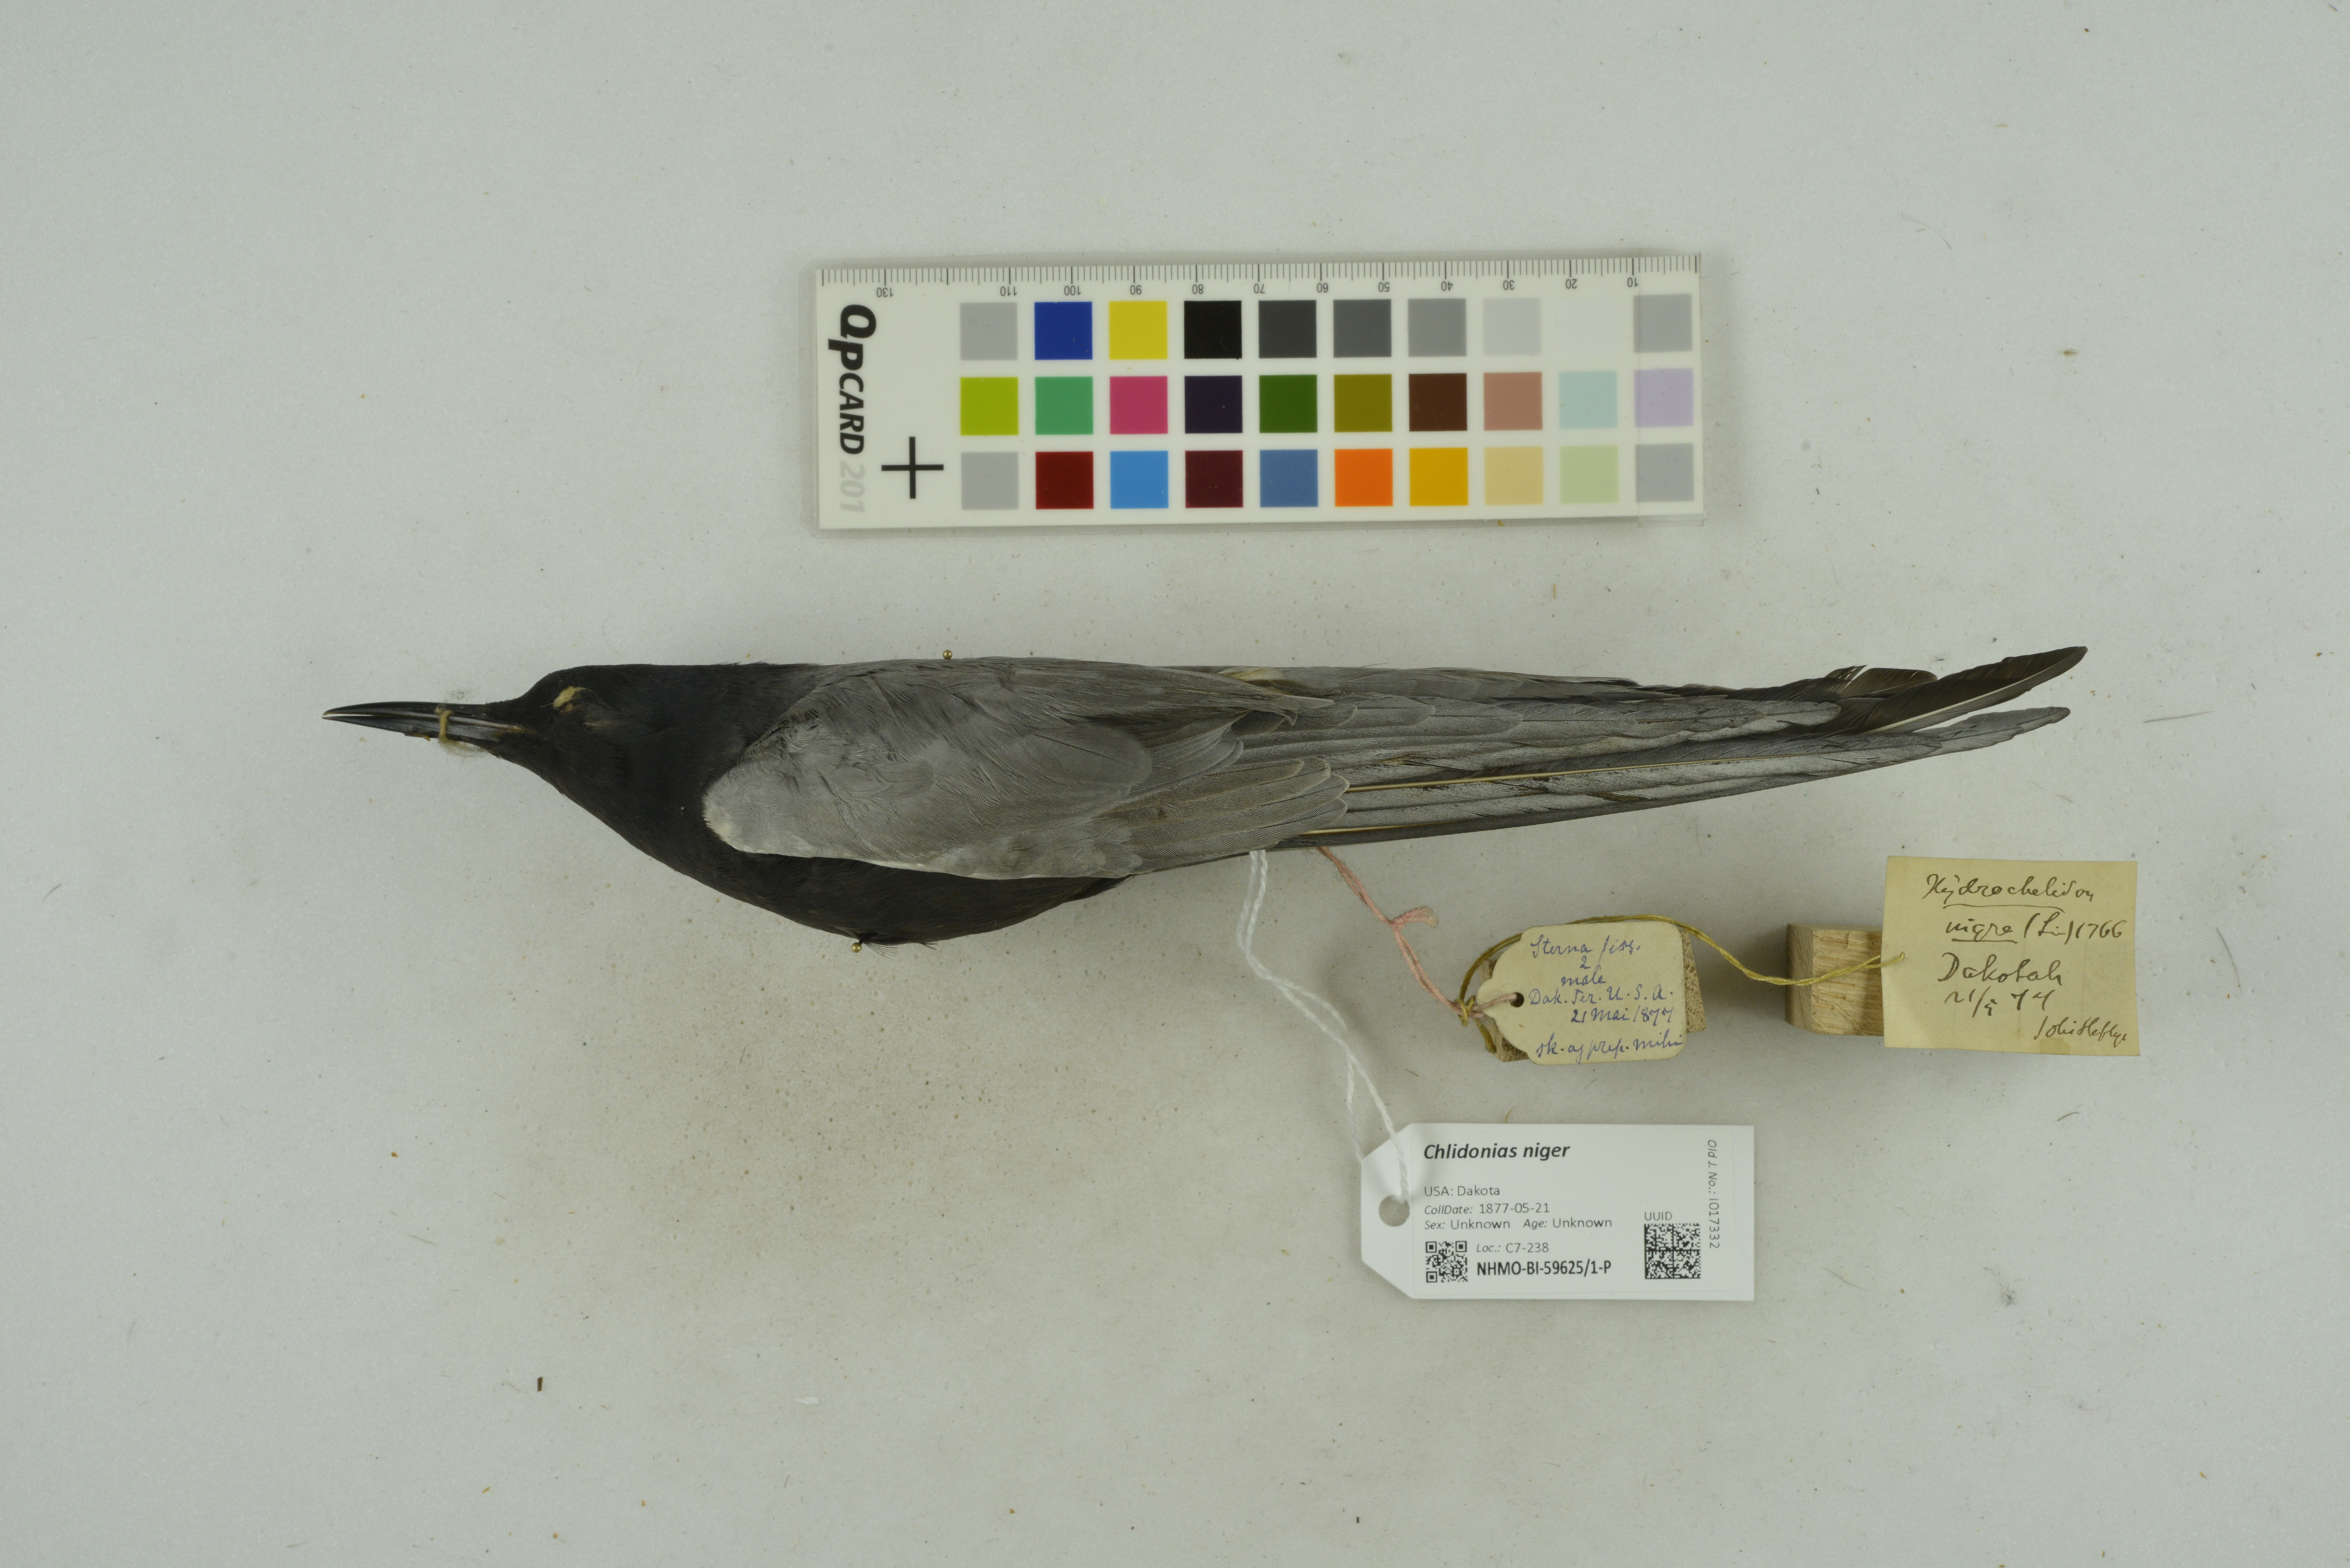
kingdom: Animalia
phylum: Chordata
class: Aves
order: Charadriiformes
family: Laridae
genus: Chlidonias
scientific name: Chlidonias niger
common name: Black tern
